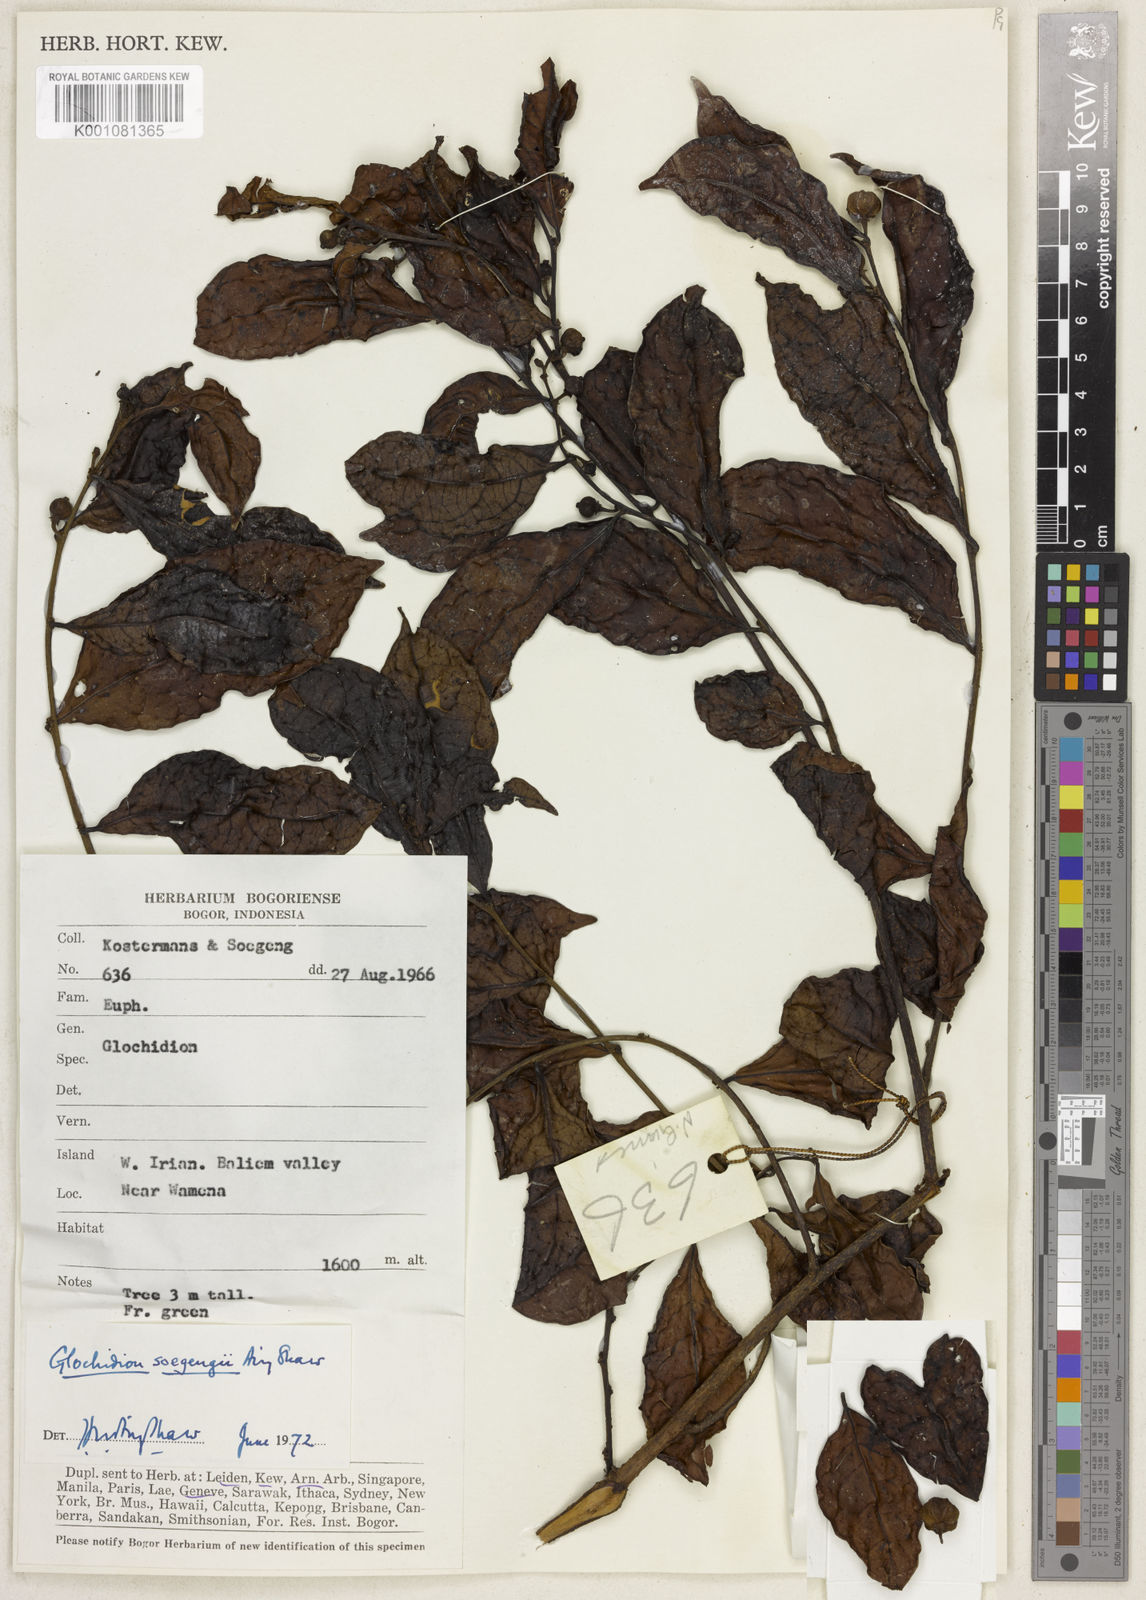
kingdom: Plantae
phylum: Tracheophyta
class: Magnoliopsida
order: Malpighiales
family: Phyllanthaceae
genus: Glochidion
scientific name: Glochidion wisselense
